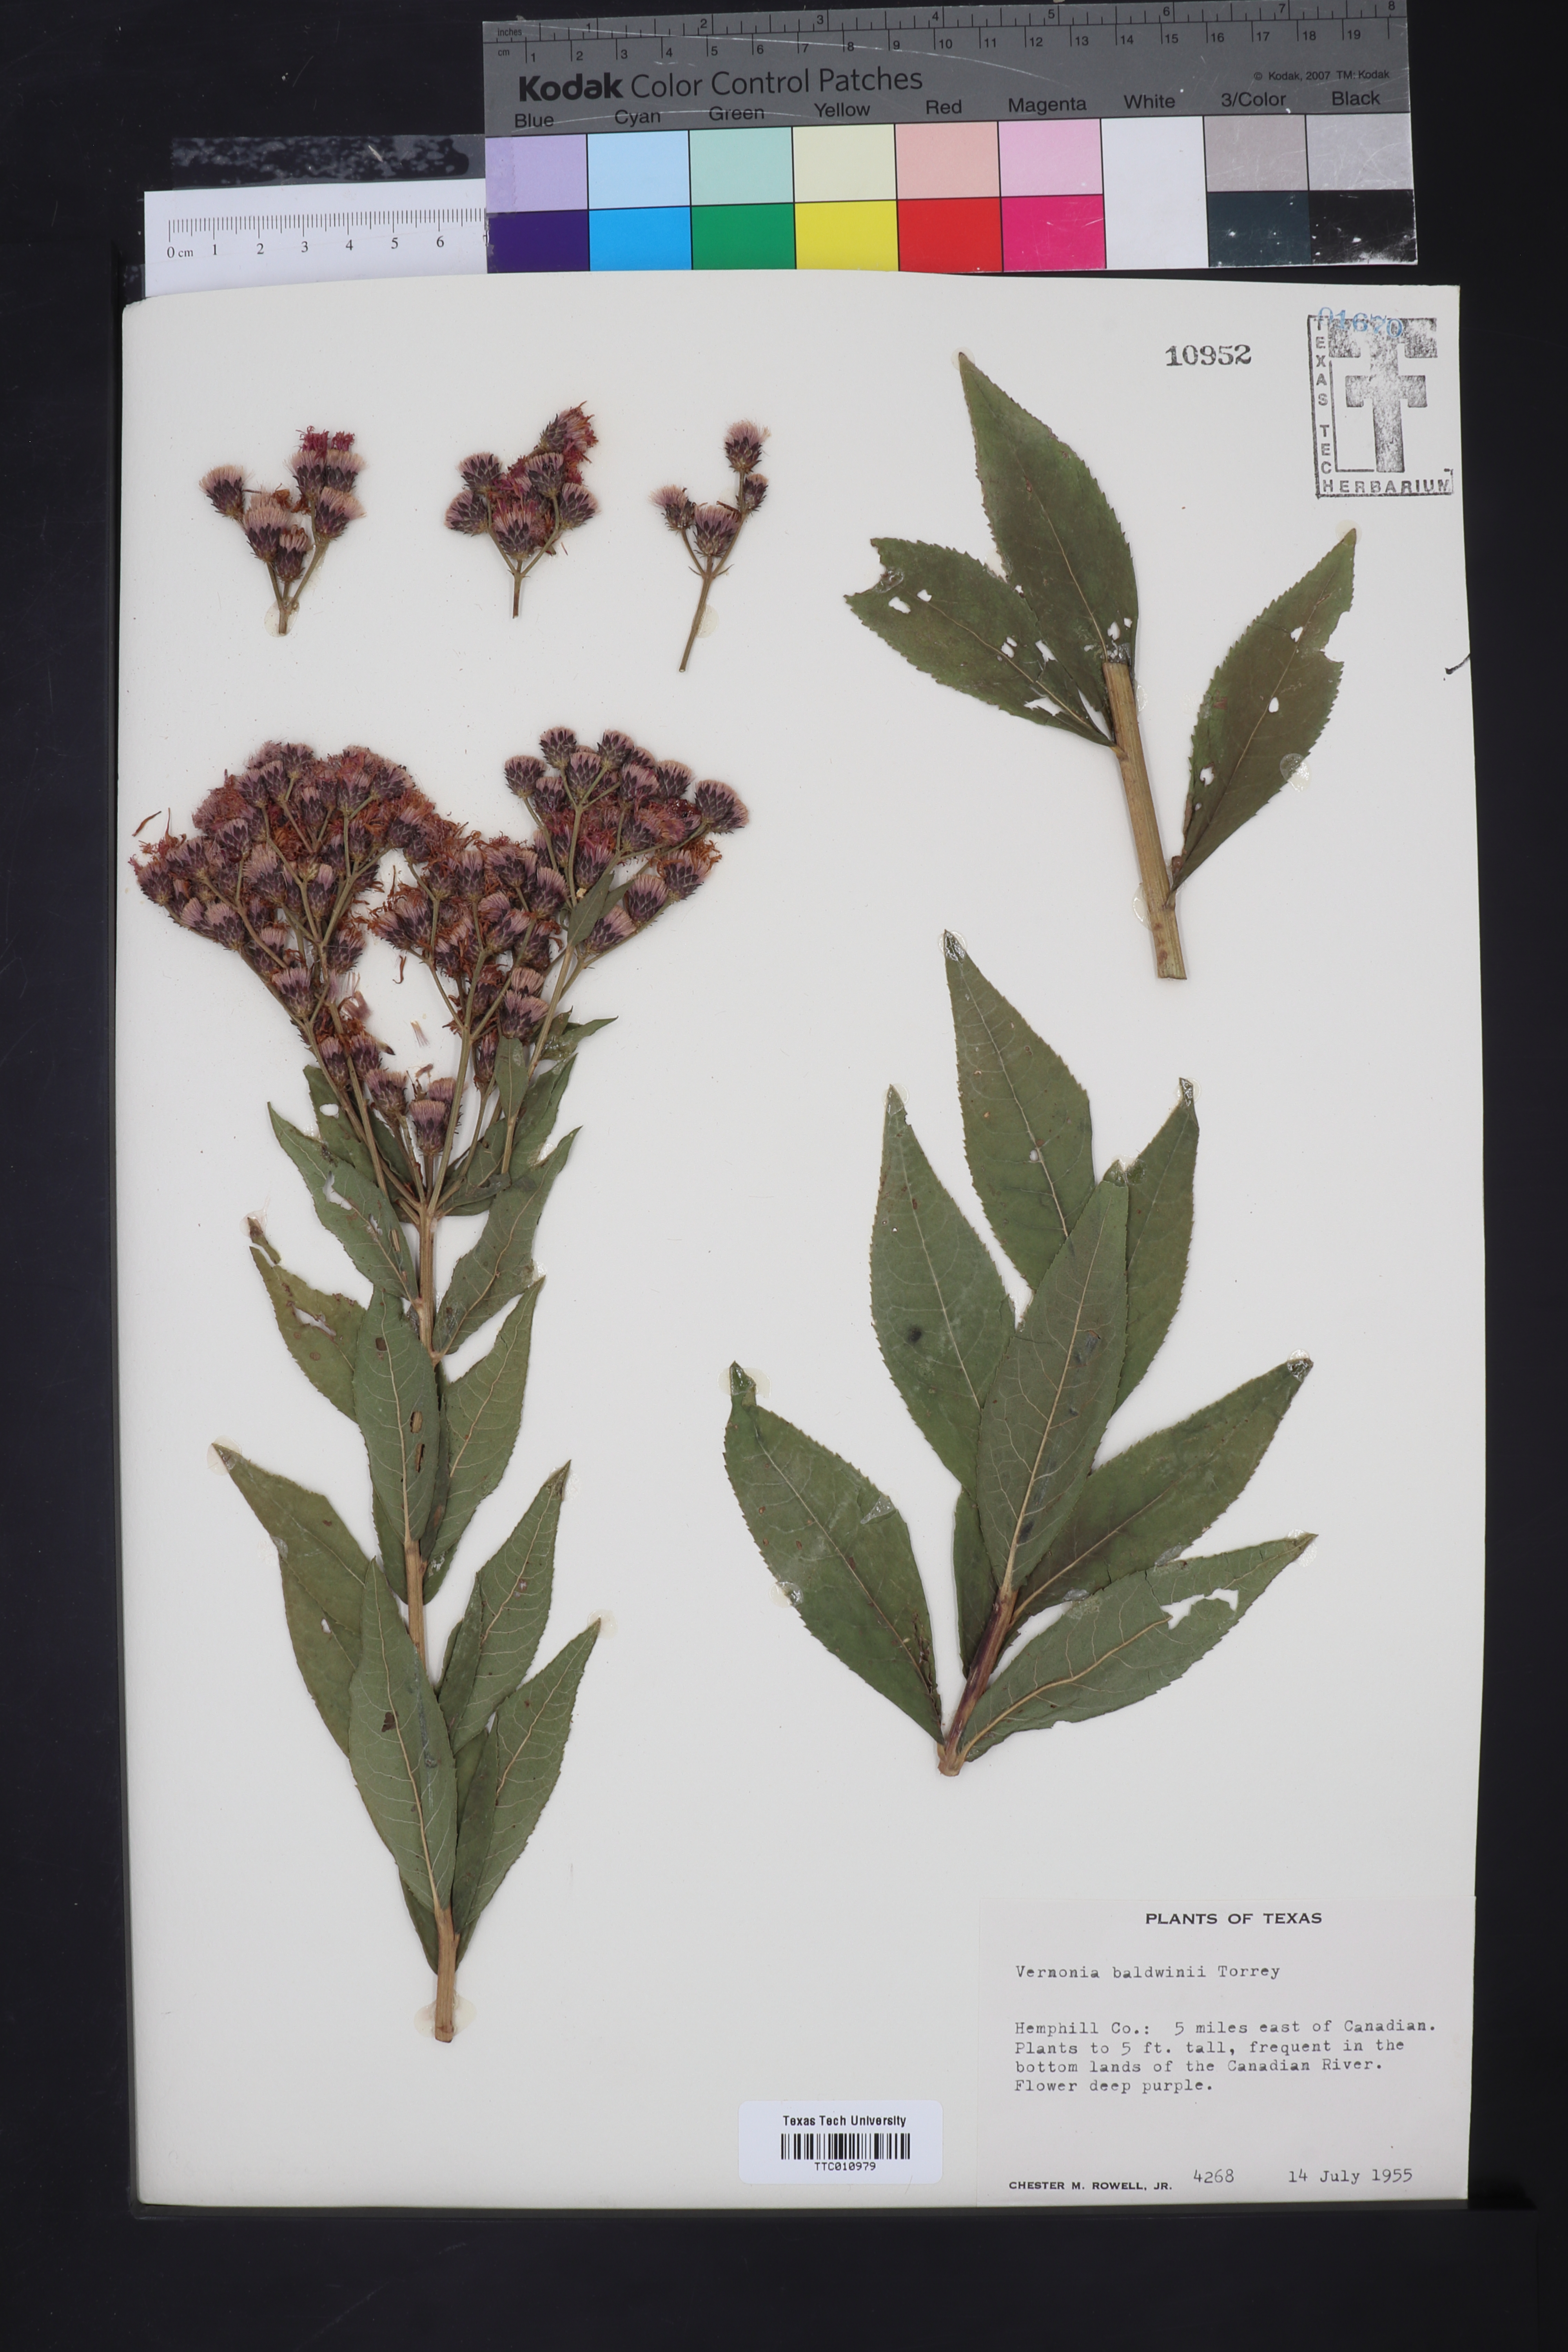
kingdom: Plantae
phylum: Tracheophyta
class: Magnoliopsida
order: Asterales
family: Asteraceae
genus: Vernonia
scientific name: Vernonia baldwinii
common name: Western ironweed
